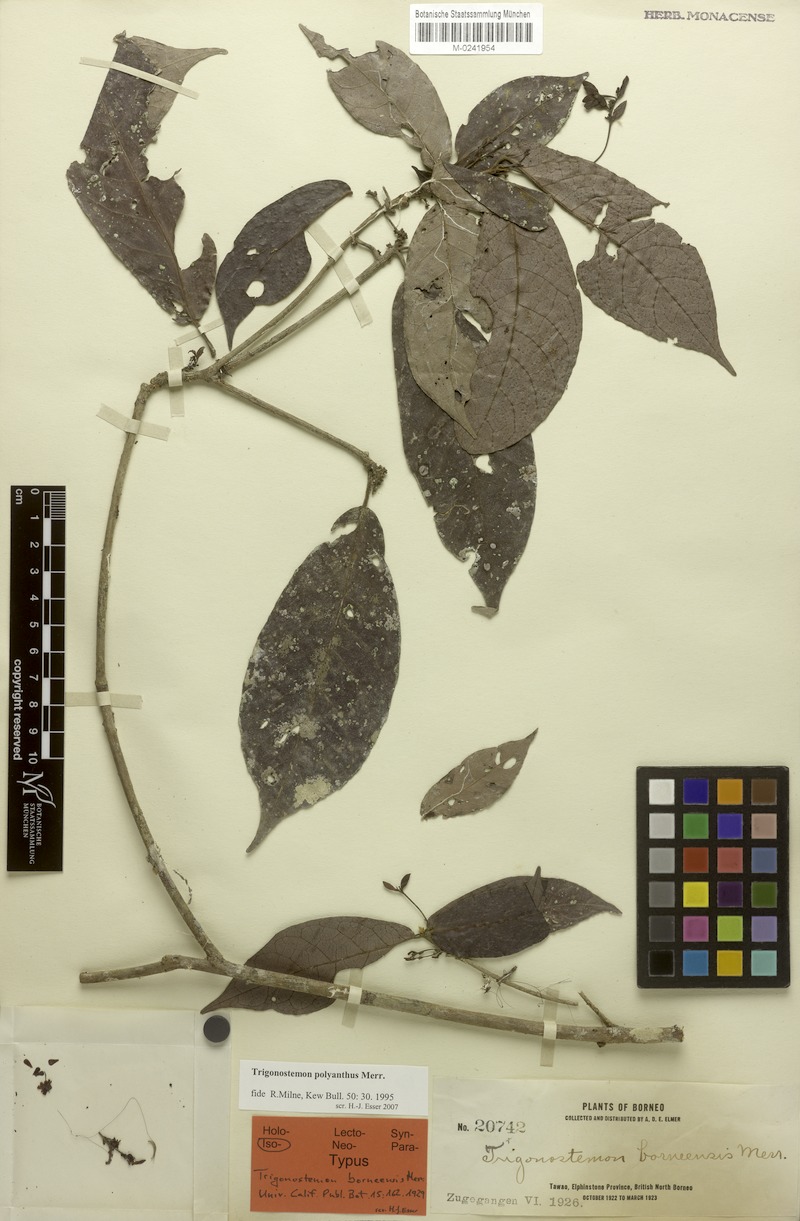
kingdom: Plantae
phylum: Tracheophyta
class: Magnoliopsida
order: Malpighiales
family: Euphorbiaceae
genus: Trigonostemon
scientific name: Trigonostemon villosus
